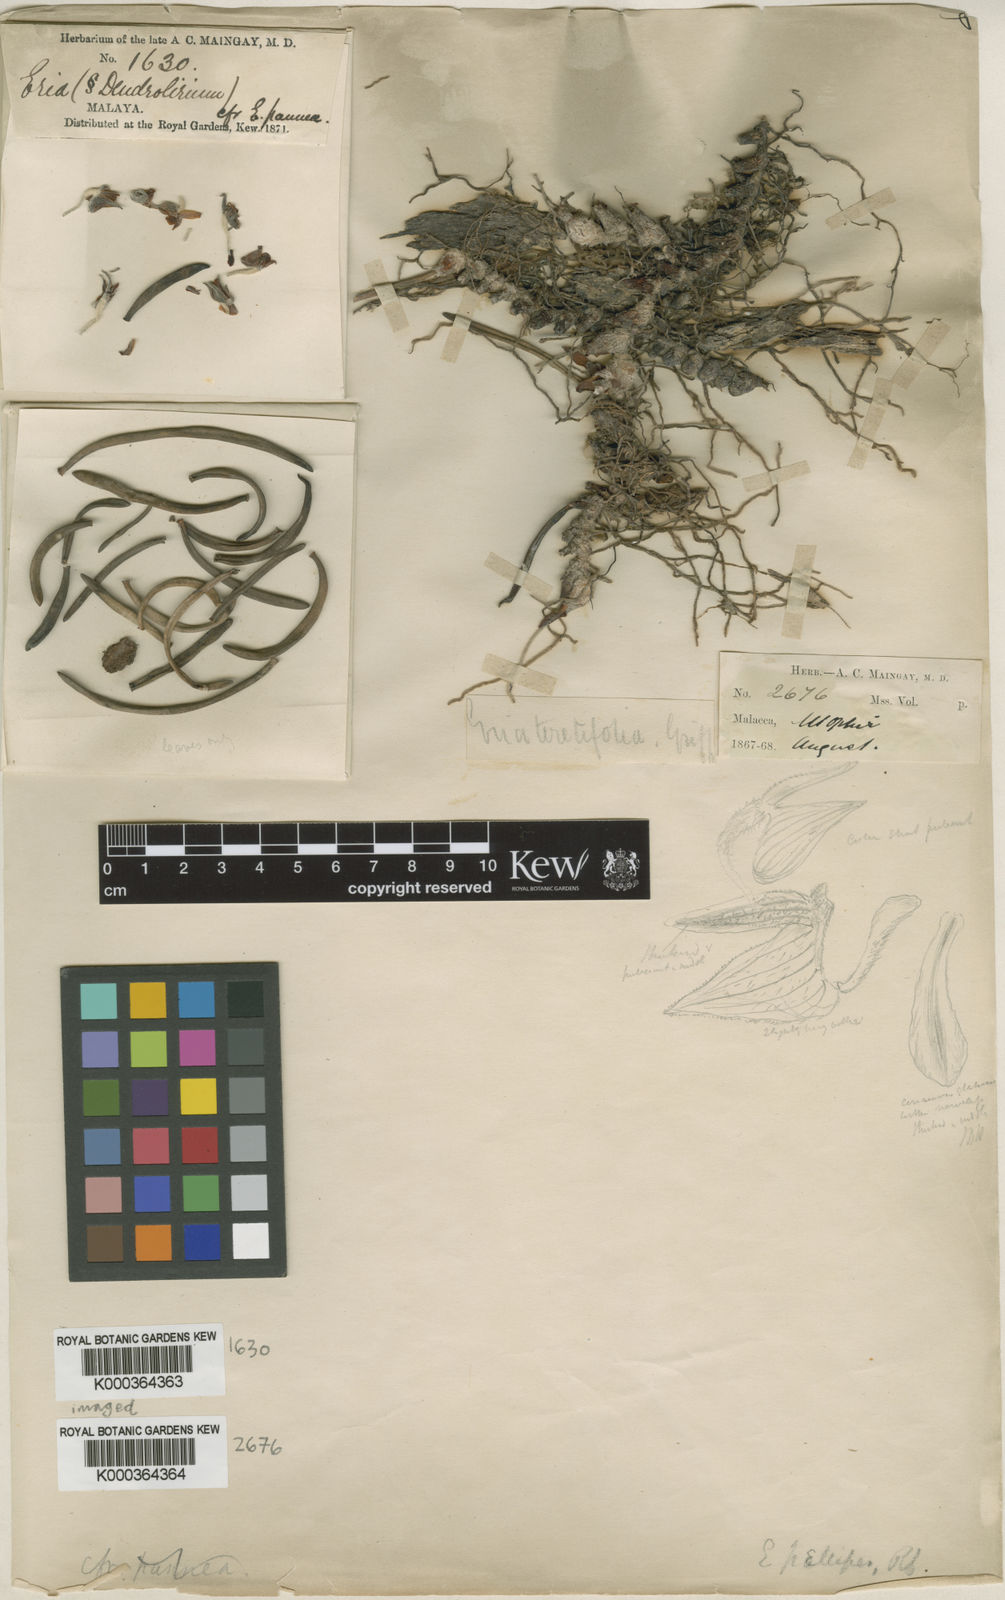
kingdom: Plantae
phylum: Tracheophyta
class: Liliopsida
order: Asparagales
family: Orchidaceae
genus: Strongyleria
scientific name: Strongyleria pellipes
